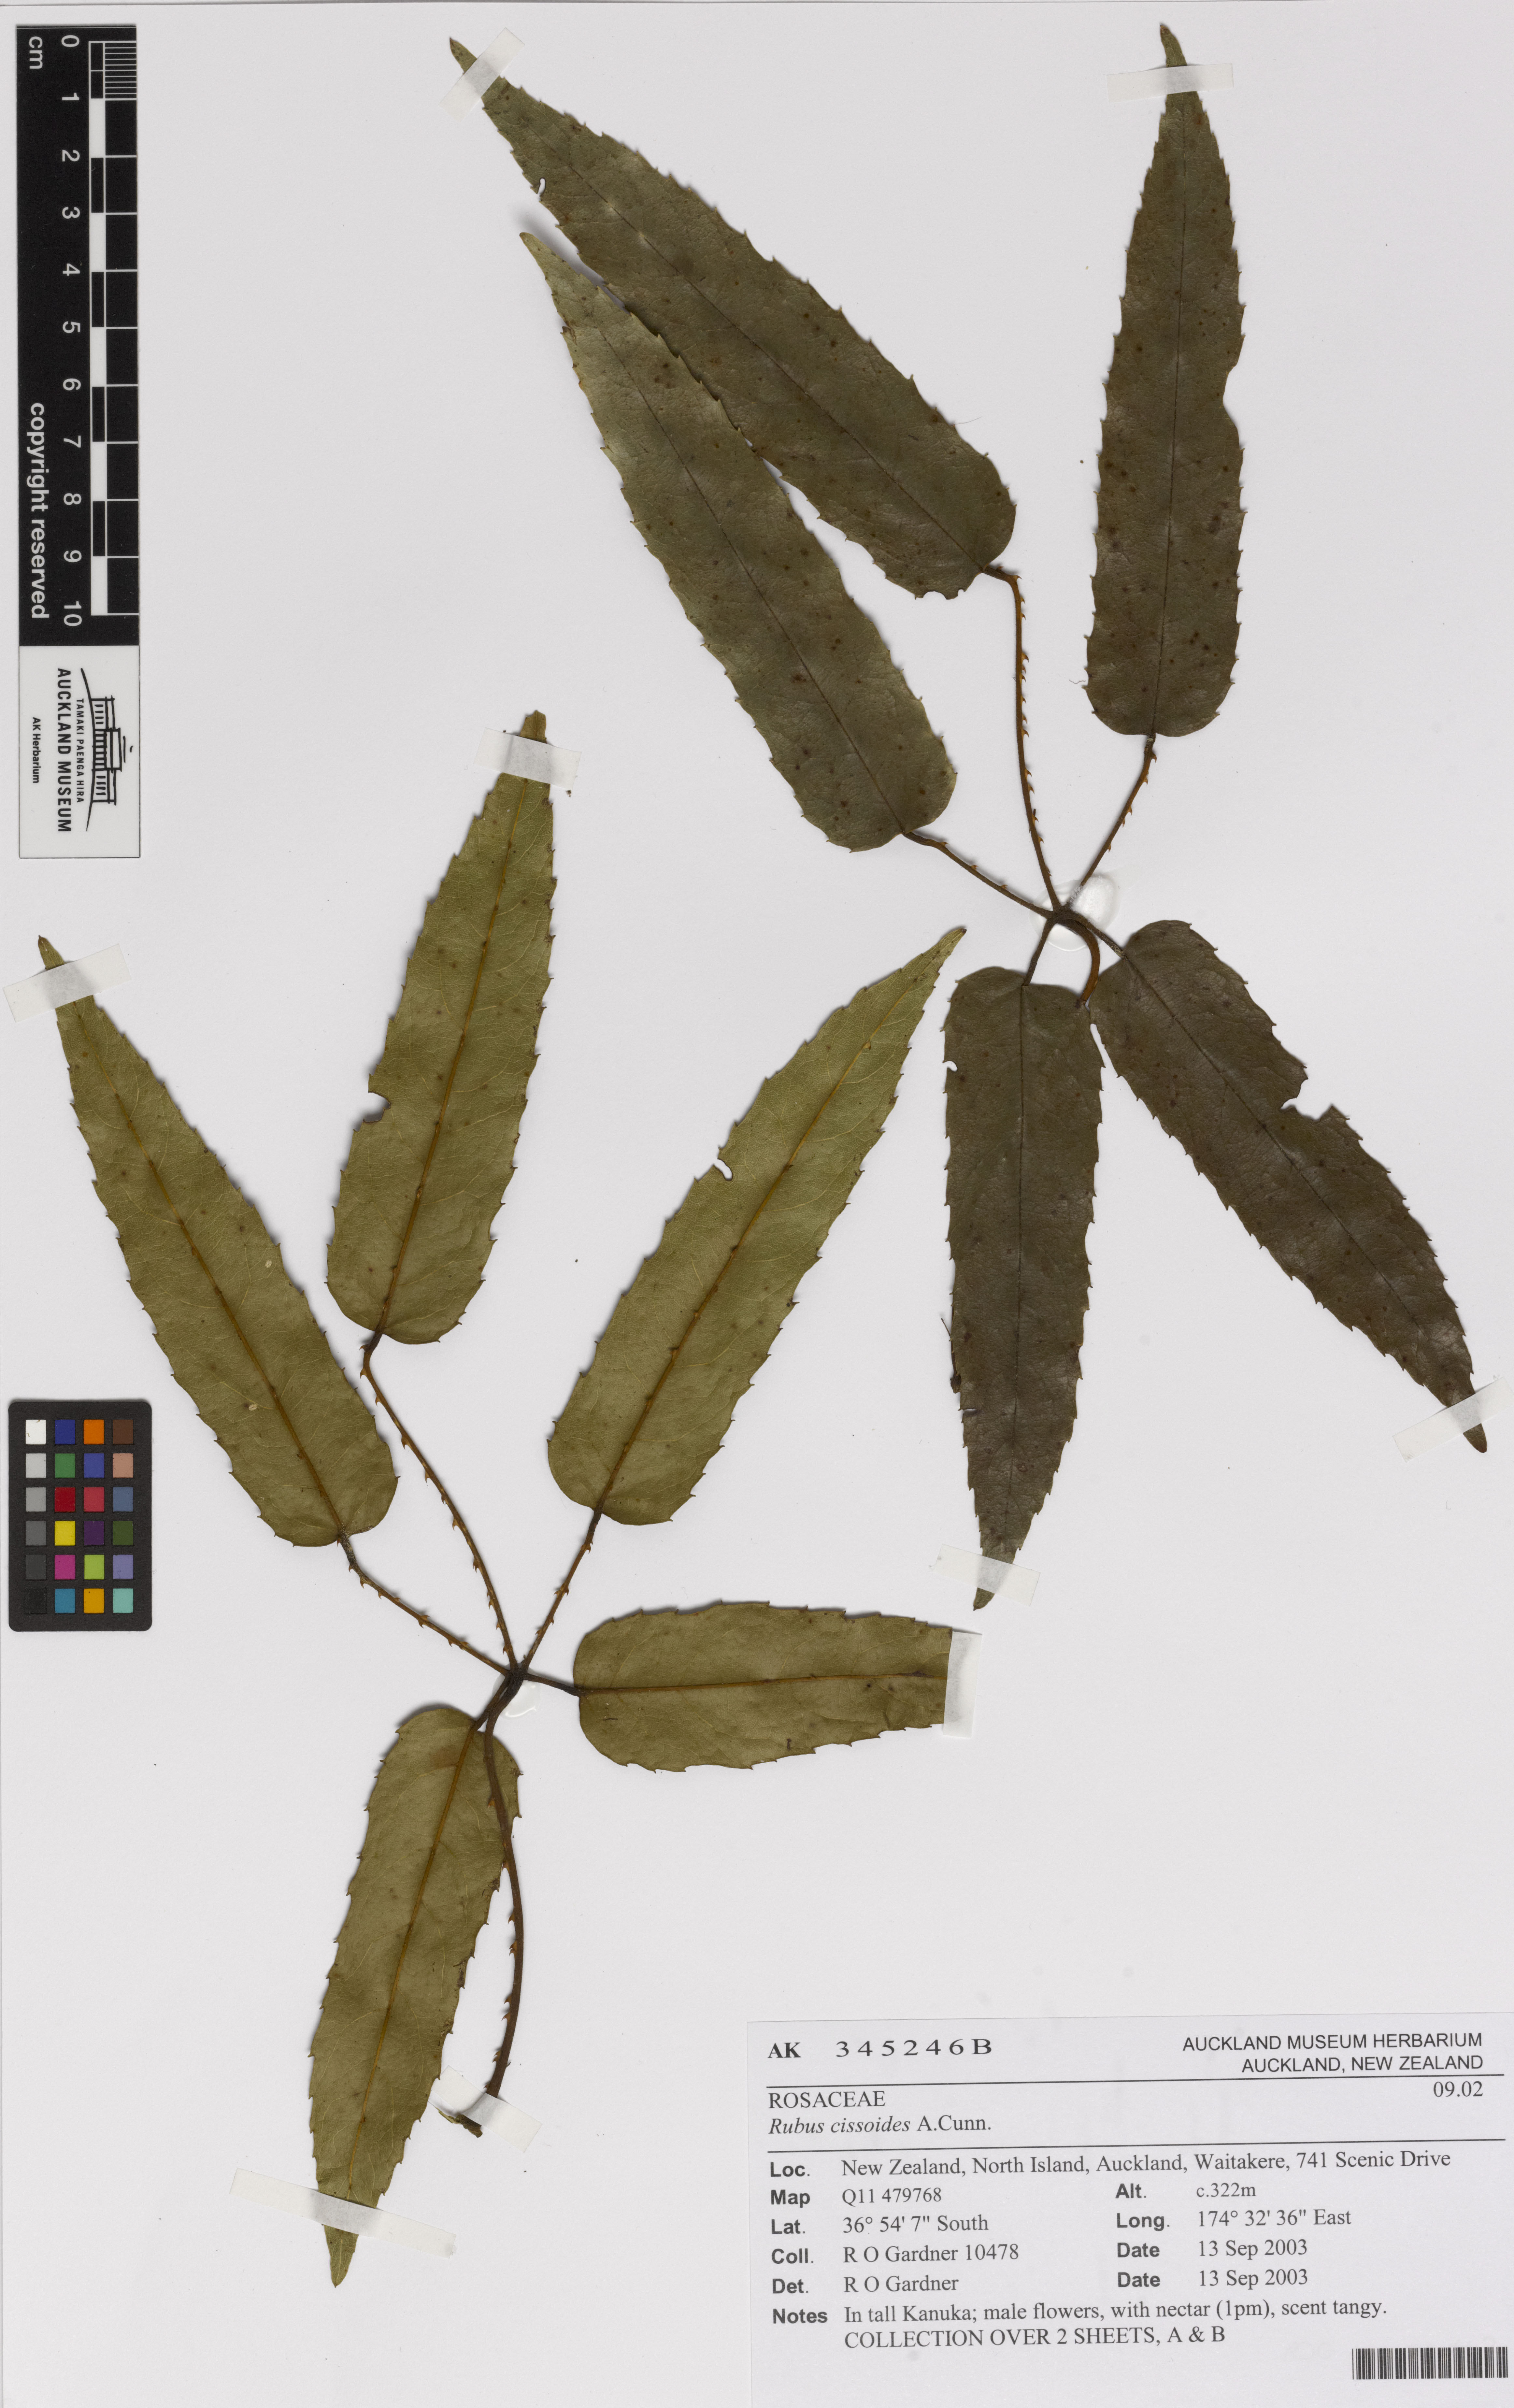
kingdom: Plantae
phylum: Tracheophyta
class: Magnoliopsida
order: Rosales
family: Rosaceae
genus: Rubus
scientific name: Rubus cissoides
